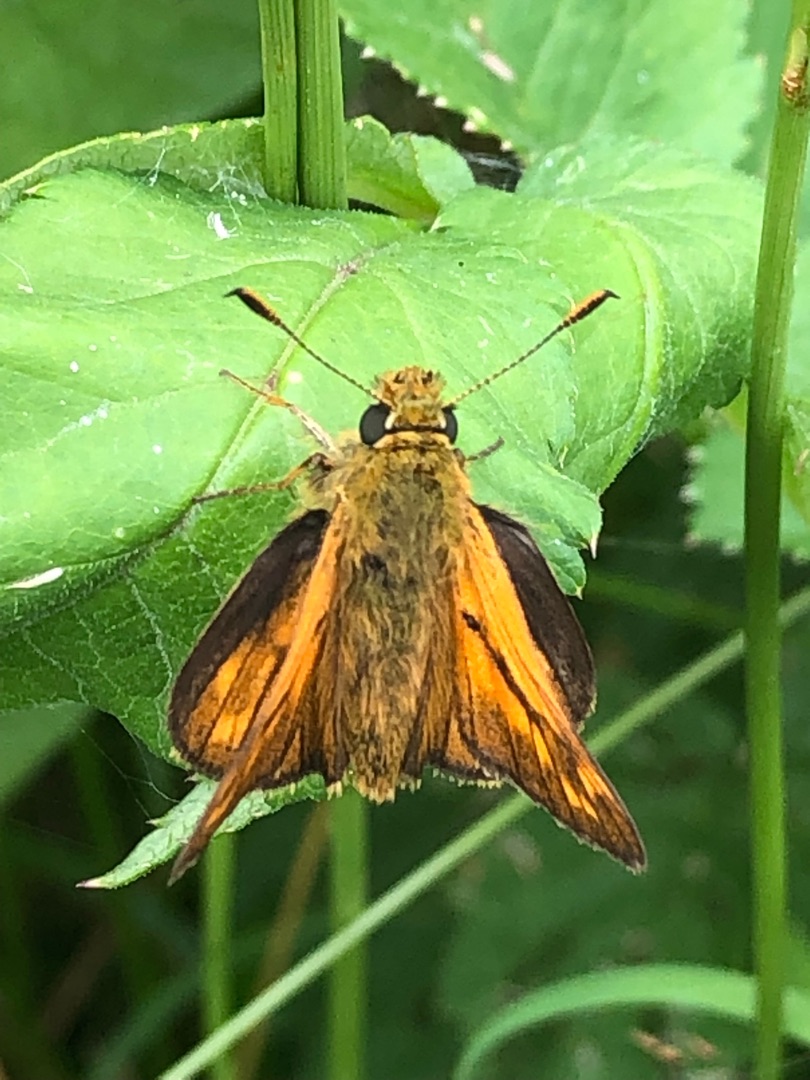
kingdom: Animalia
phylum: Arthropoda
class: Insecta
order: Lepidoptera
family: Hesperiidae
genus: Ochlodes
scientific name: Ochlodes venata
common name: Stor bredpande
